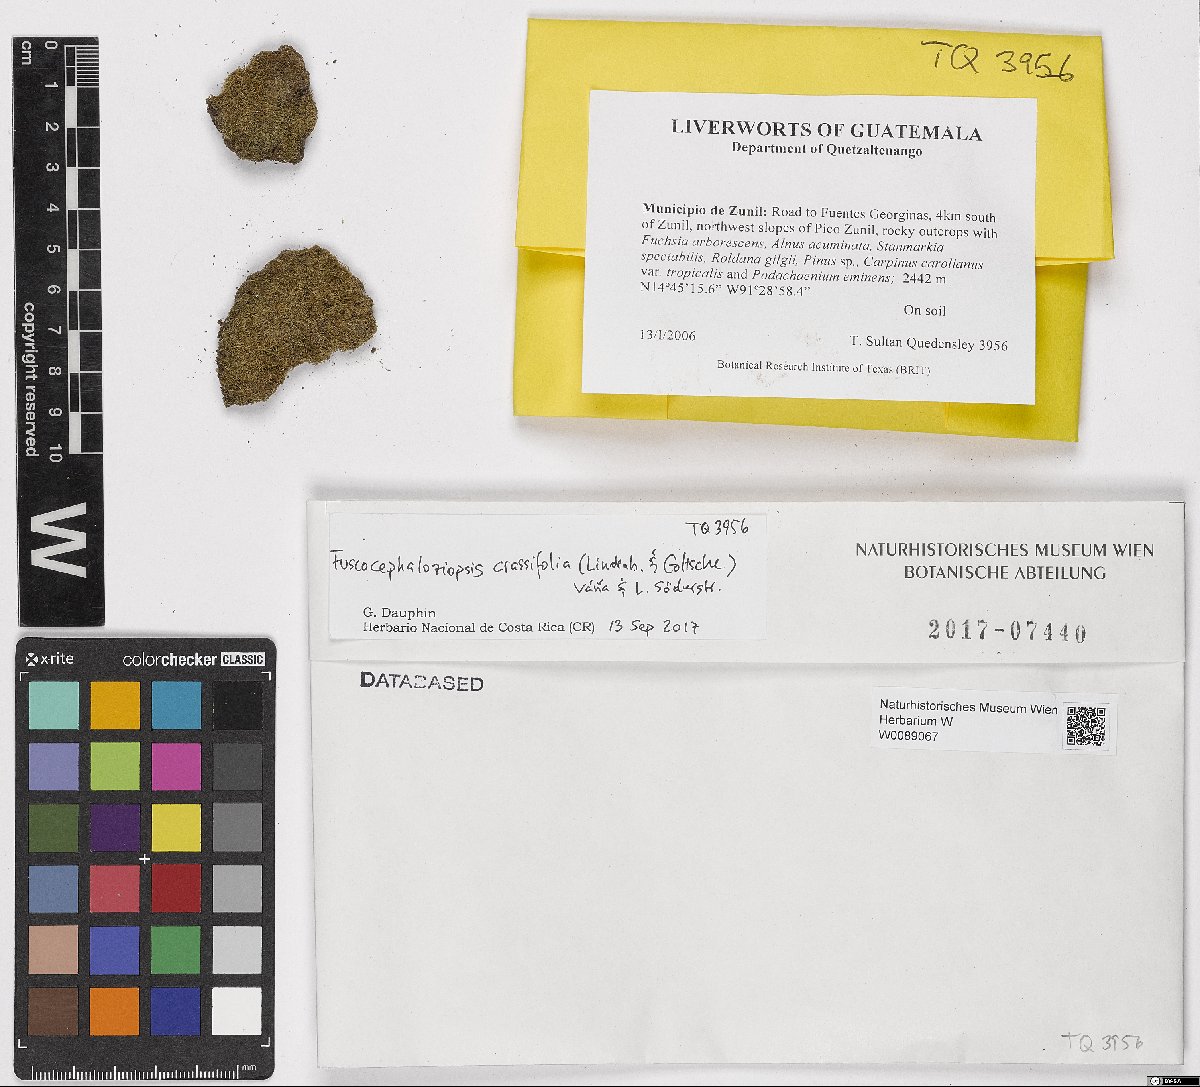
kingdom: Plantae
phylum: Marchantiophyta
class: Jungermanniopsida
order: Jungermanniales
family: Cephaloziaceae
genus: Fuscocephaloziopsis
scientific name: Fuscocephaloziopsis crassifolia
